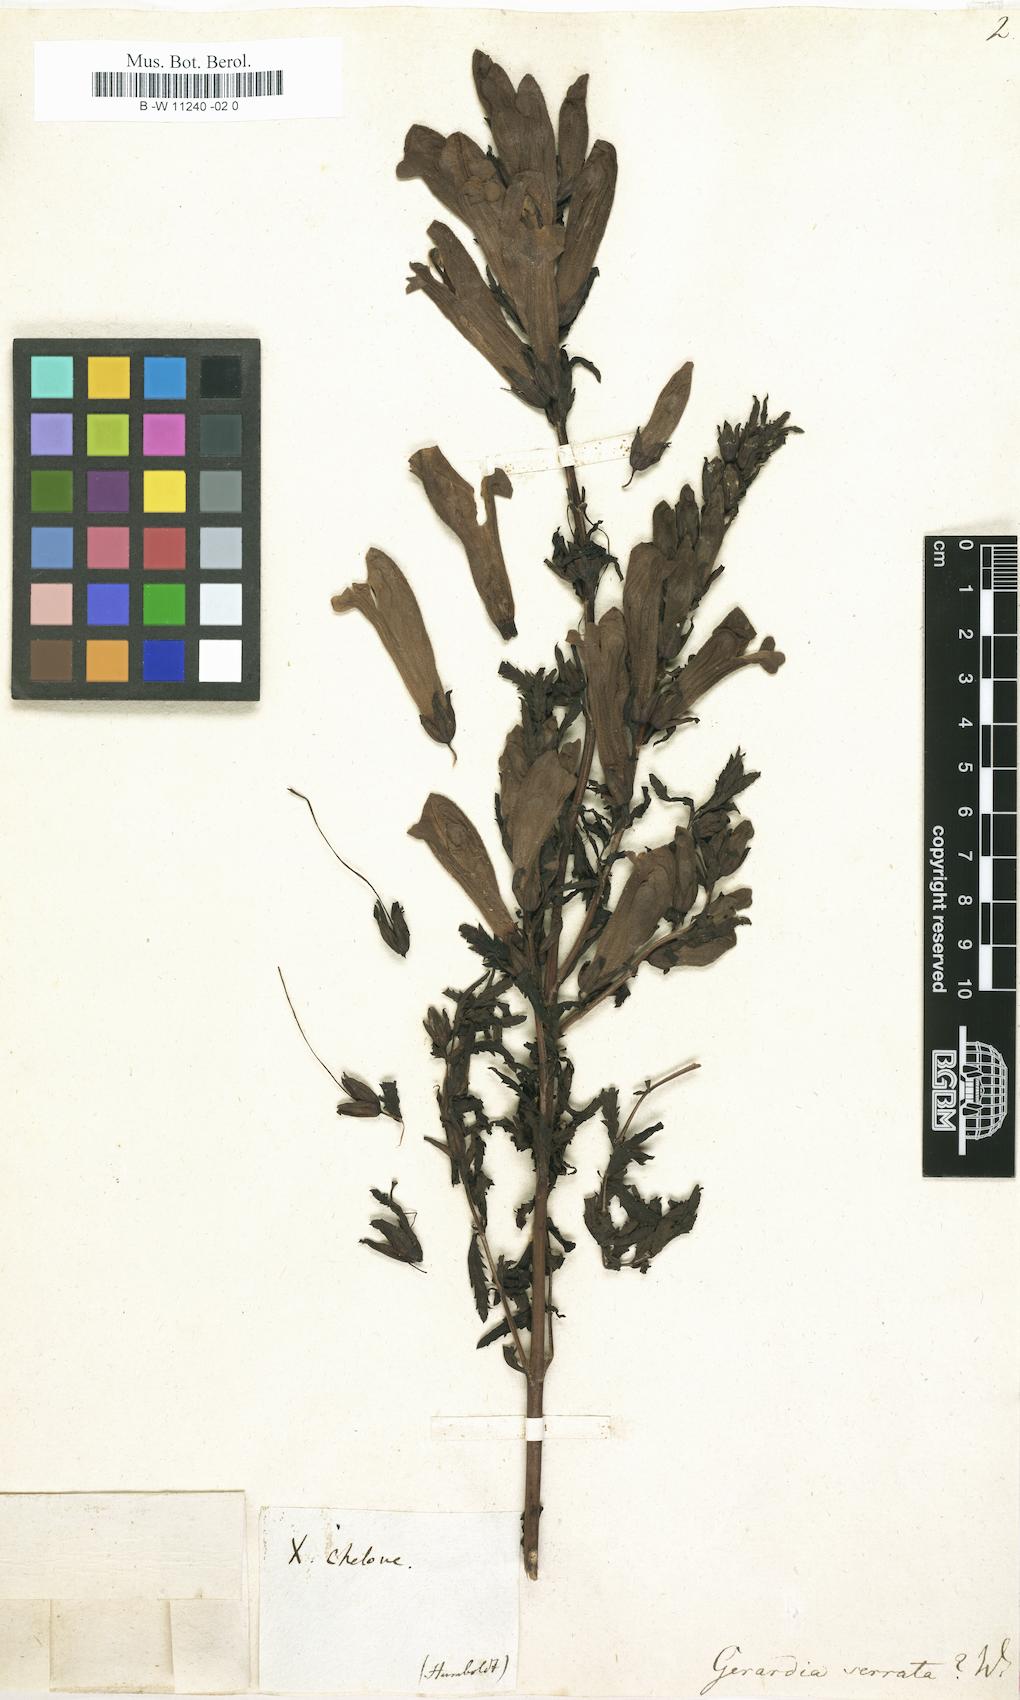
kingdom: Plantae
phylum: Tracheophyta
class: Magnoliopsida
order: Lamiales
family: Orobanchaceae
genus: Aureolaria
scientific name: Aureolaria grandiflora
